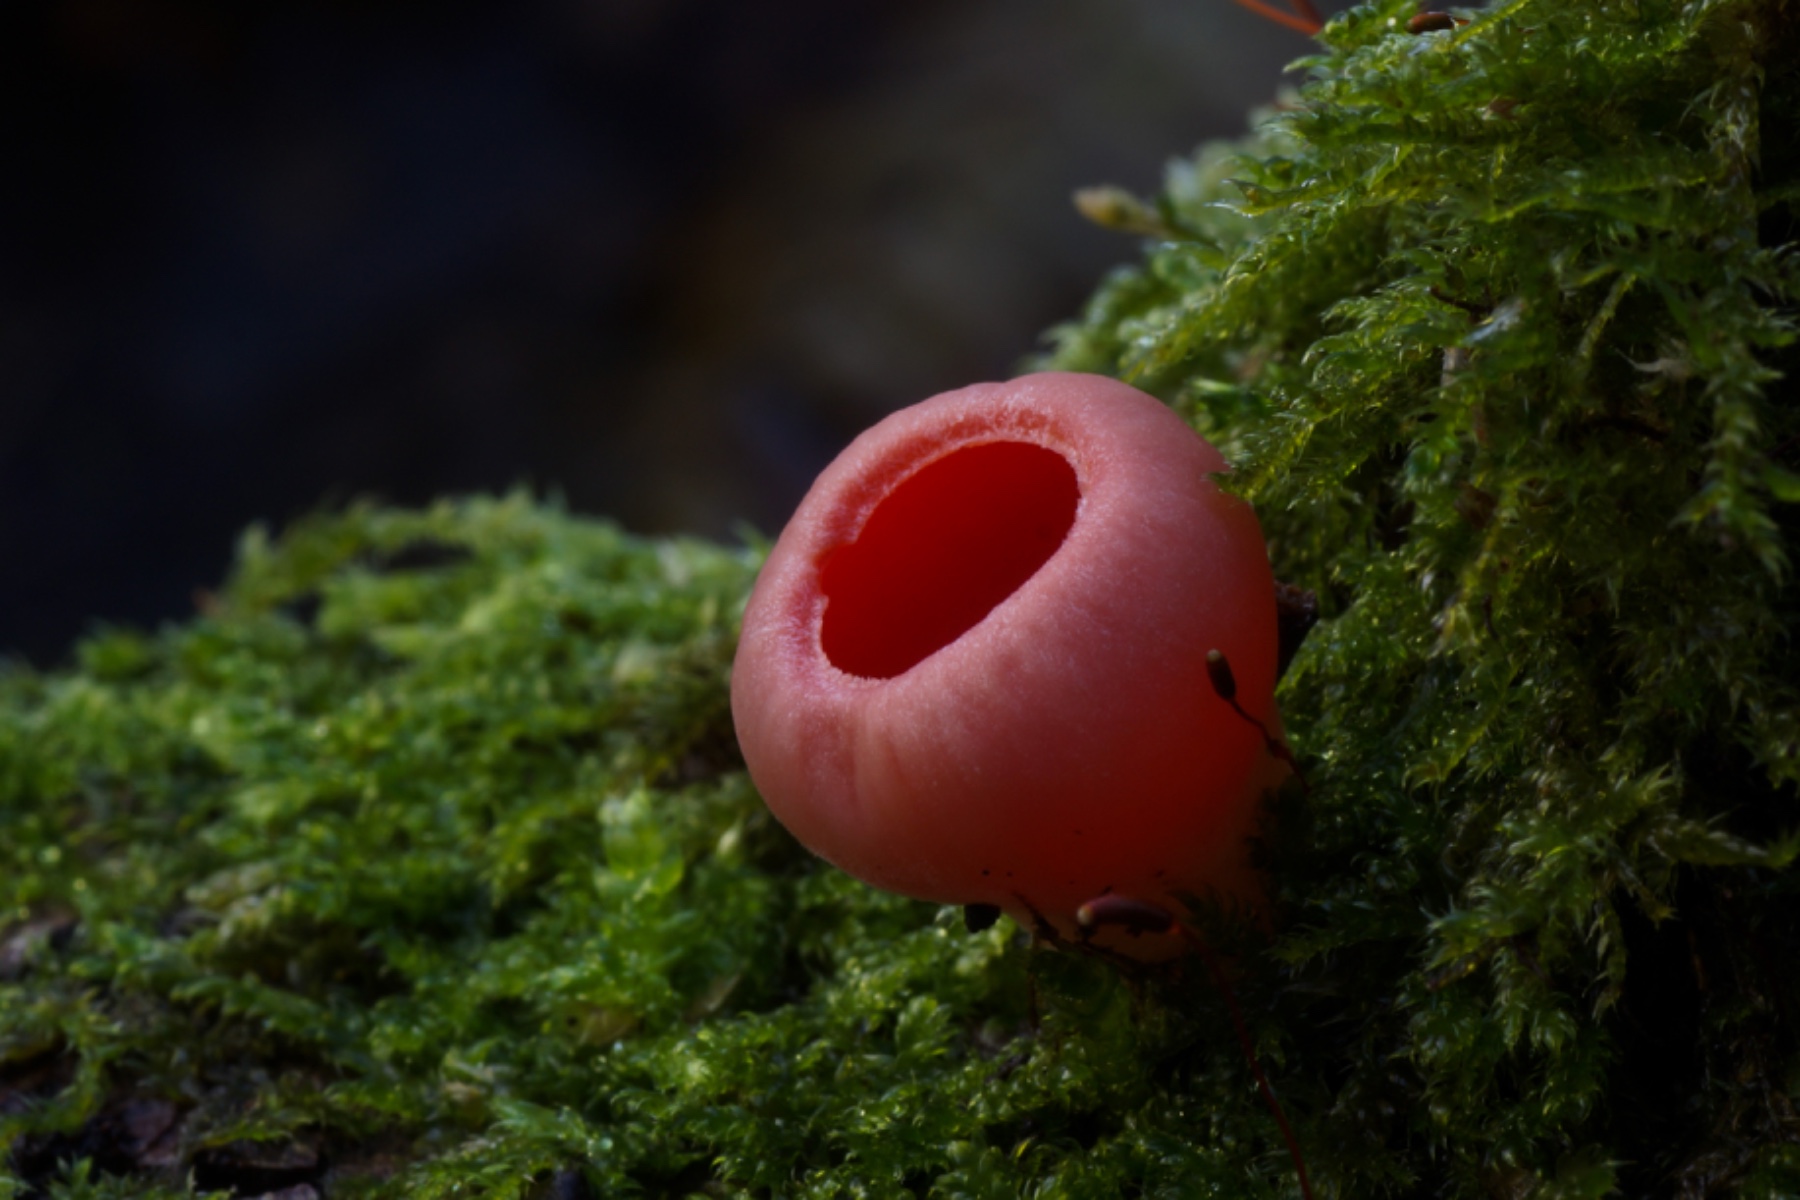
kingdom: Fungi
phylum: Ascomycota
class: Pezizomycetes
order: Pezizales
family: Sarcoscyphaceae
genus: Sarcoscypha
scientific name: Sarcoscypha austriaca
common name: krølhåret pragtbæger
